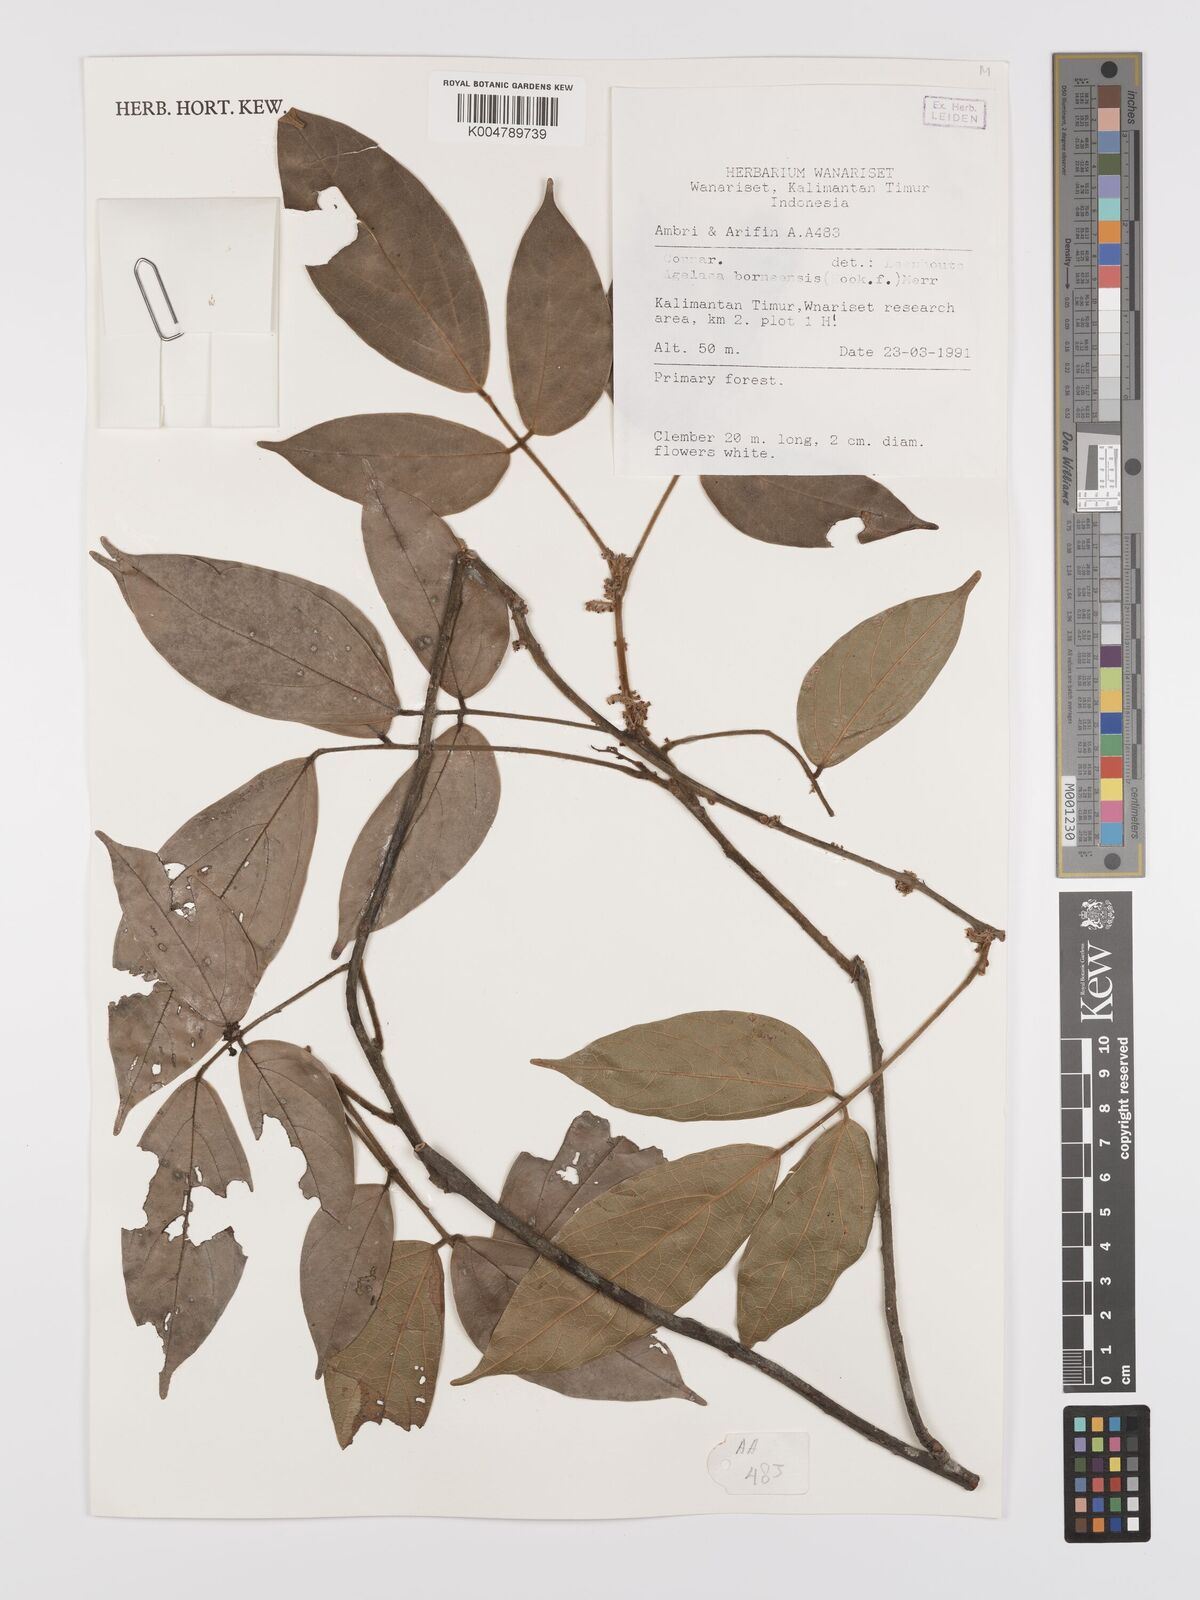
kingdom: Plantae
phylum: Tracheophyta
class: Magnoliopsida
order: Oxalidales
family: Connaraceae
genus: Agelaea
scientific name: Agelaea borneensis
